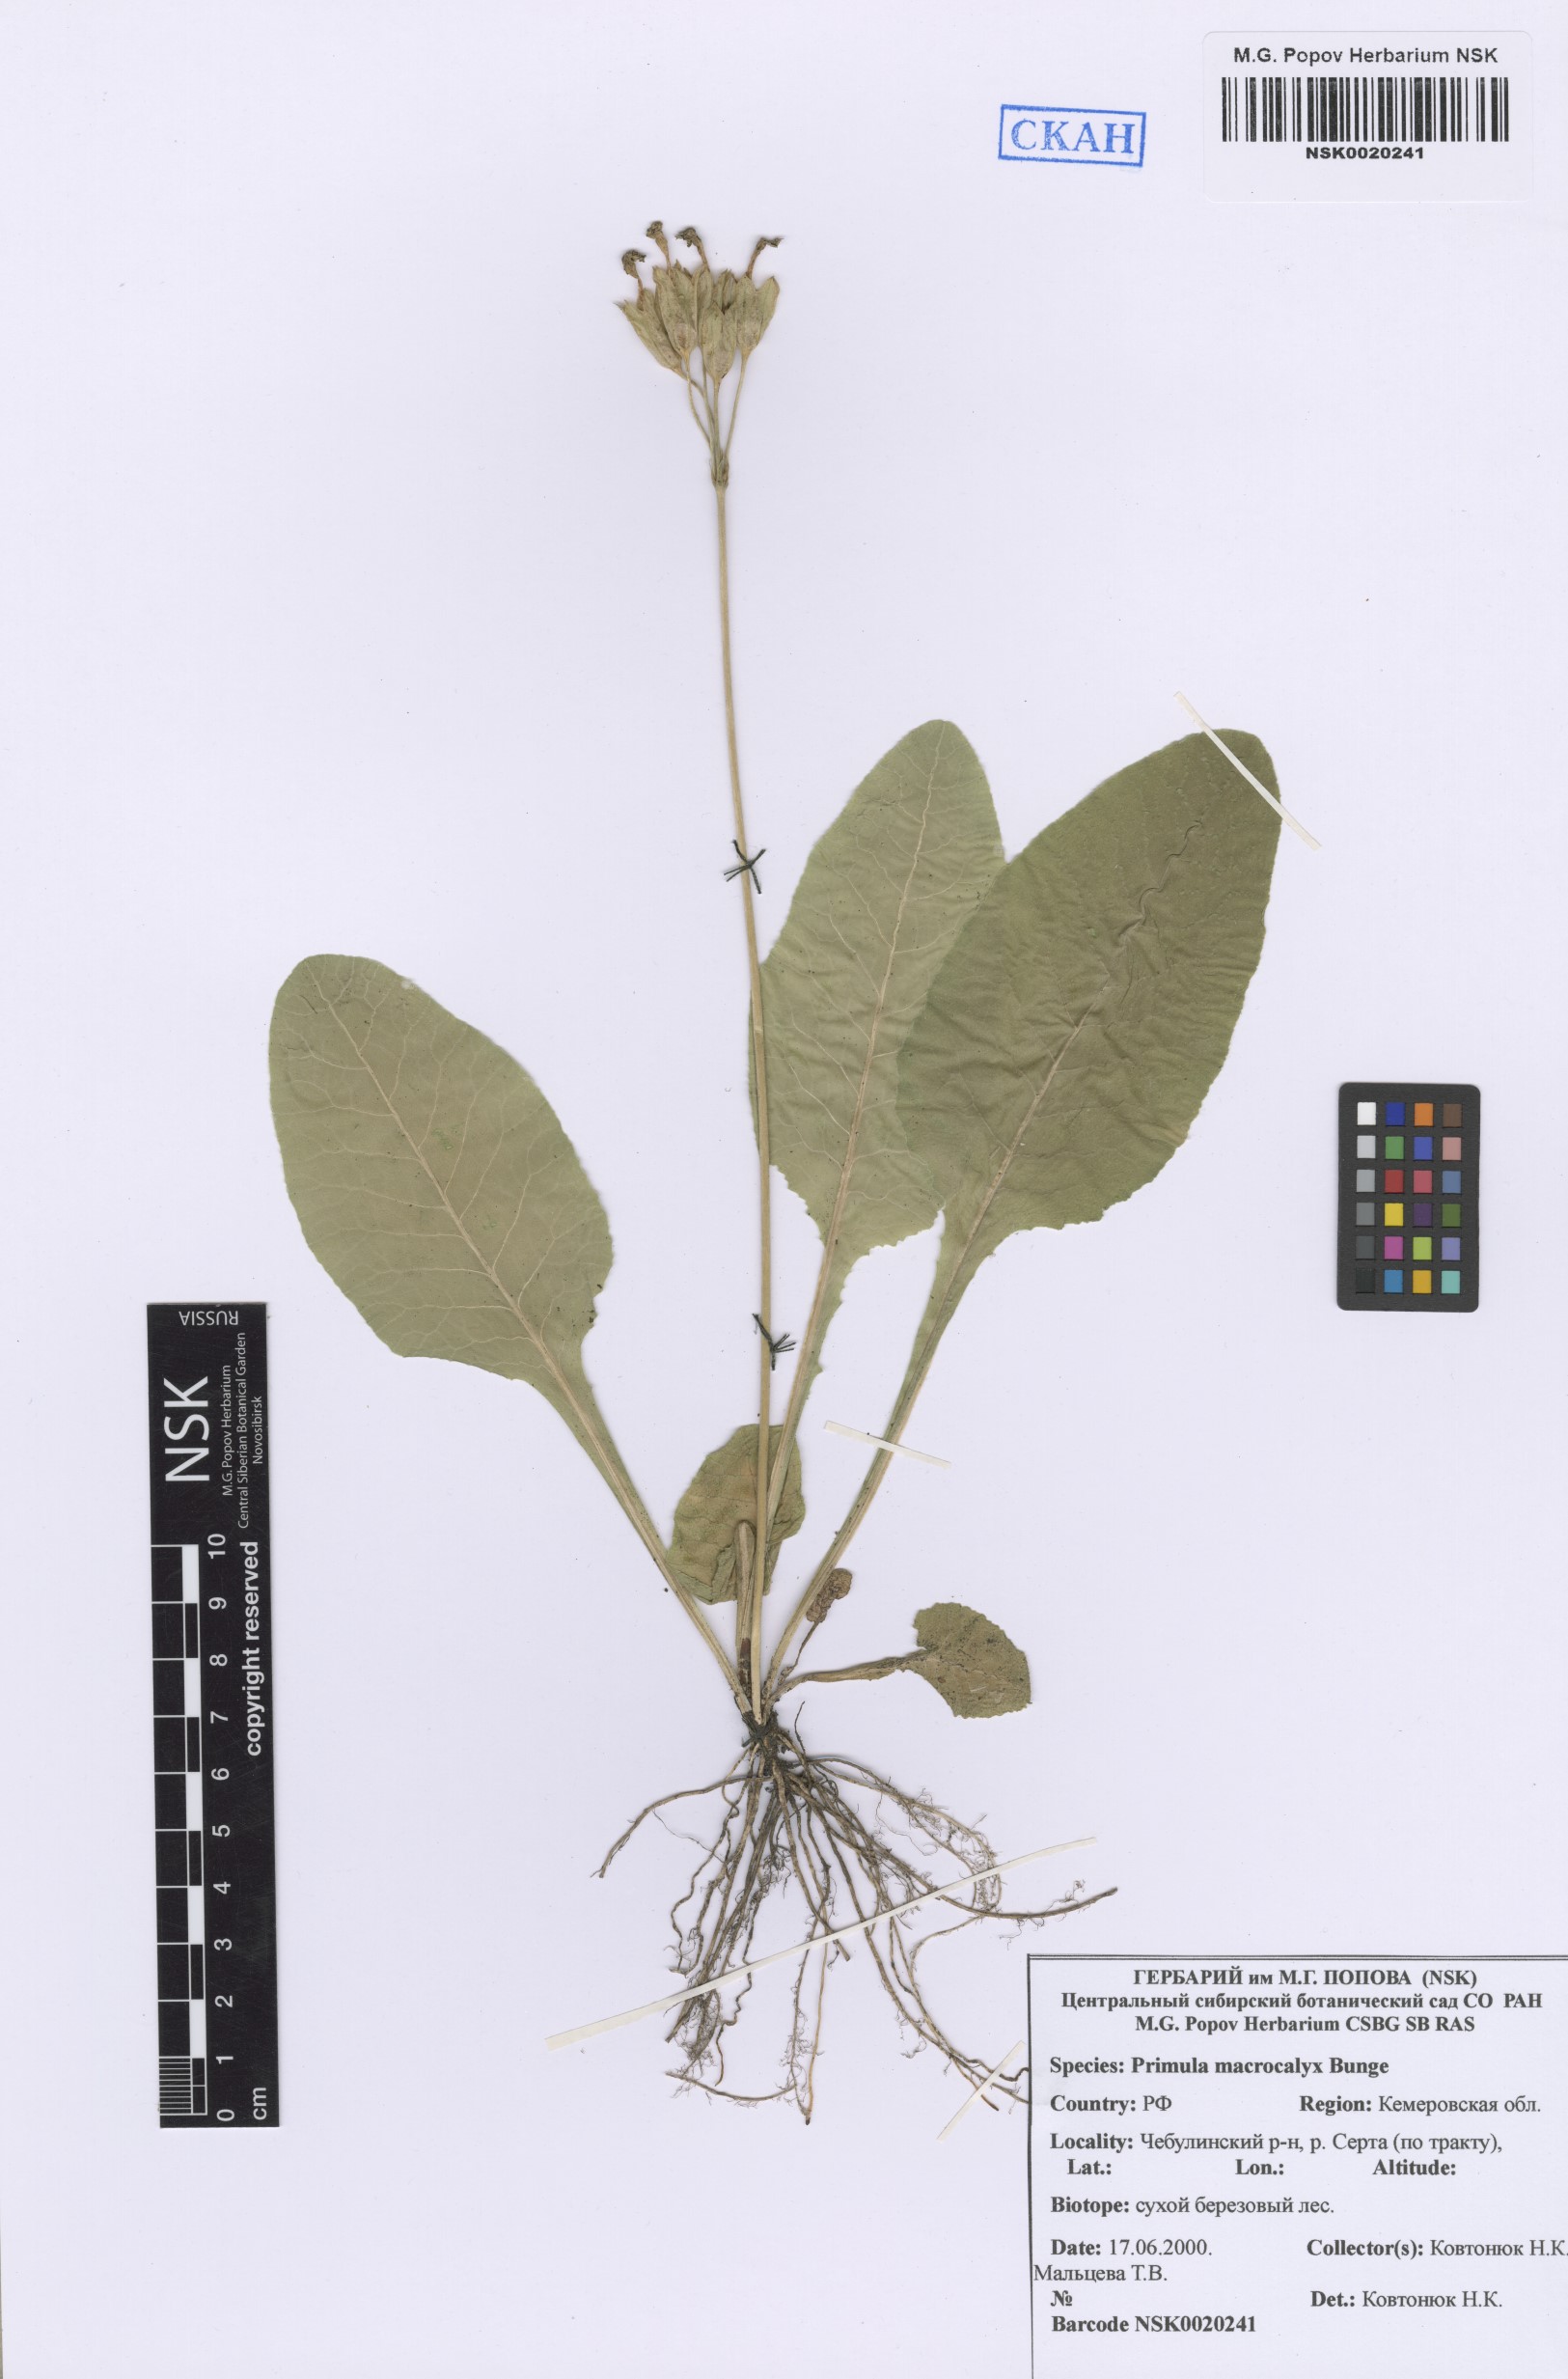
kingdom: Plantae
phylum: Tracheophyta
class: Magnoliopsida
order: Ericales
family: Primulaceae
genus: Primula
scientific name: Primula veris
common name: Cowslip
